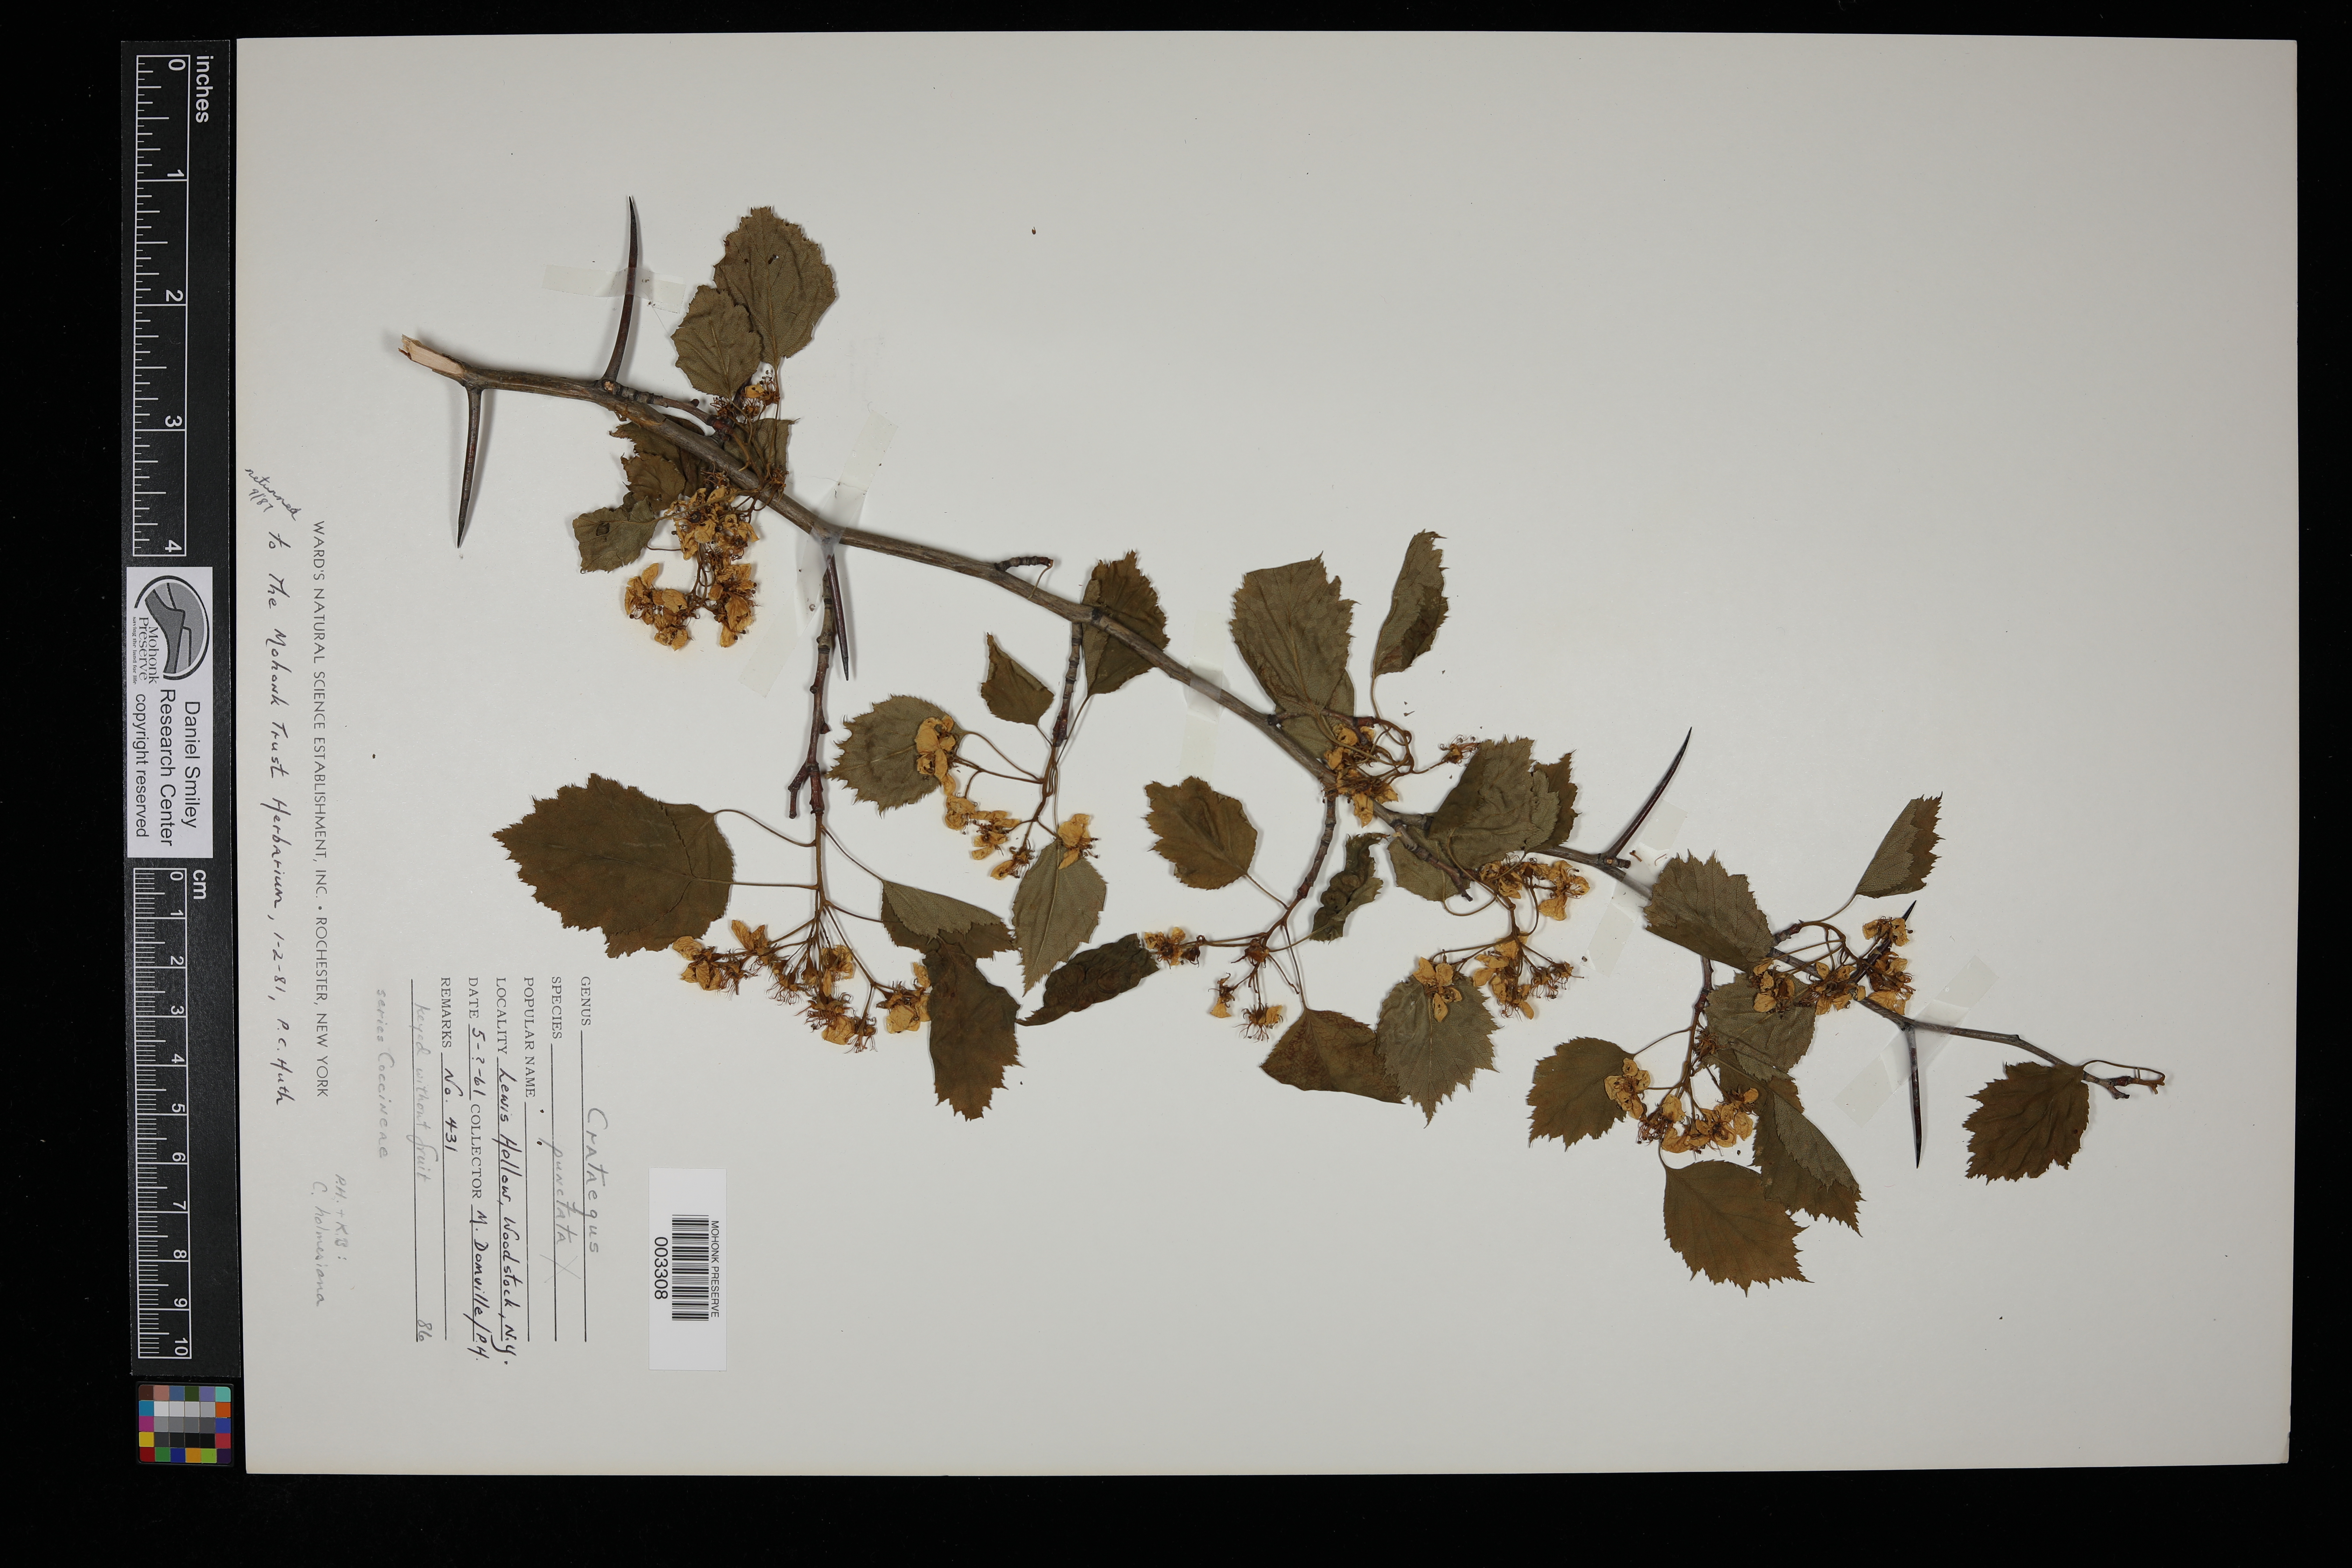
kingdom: Plantae
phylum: Tracheophyta
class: Magnoliopsida
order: Rosales
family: Rosaceae
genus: Crataegus
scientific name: Crataegus punctata
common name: Dotted hawthorn
